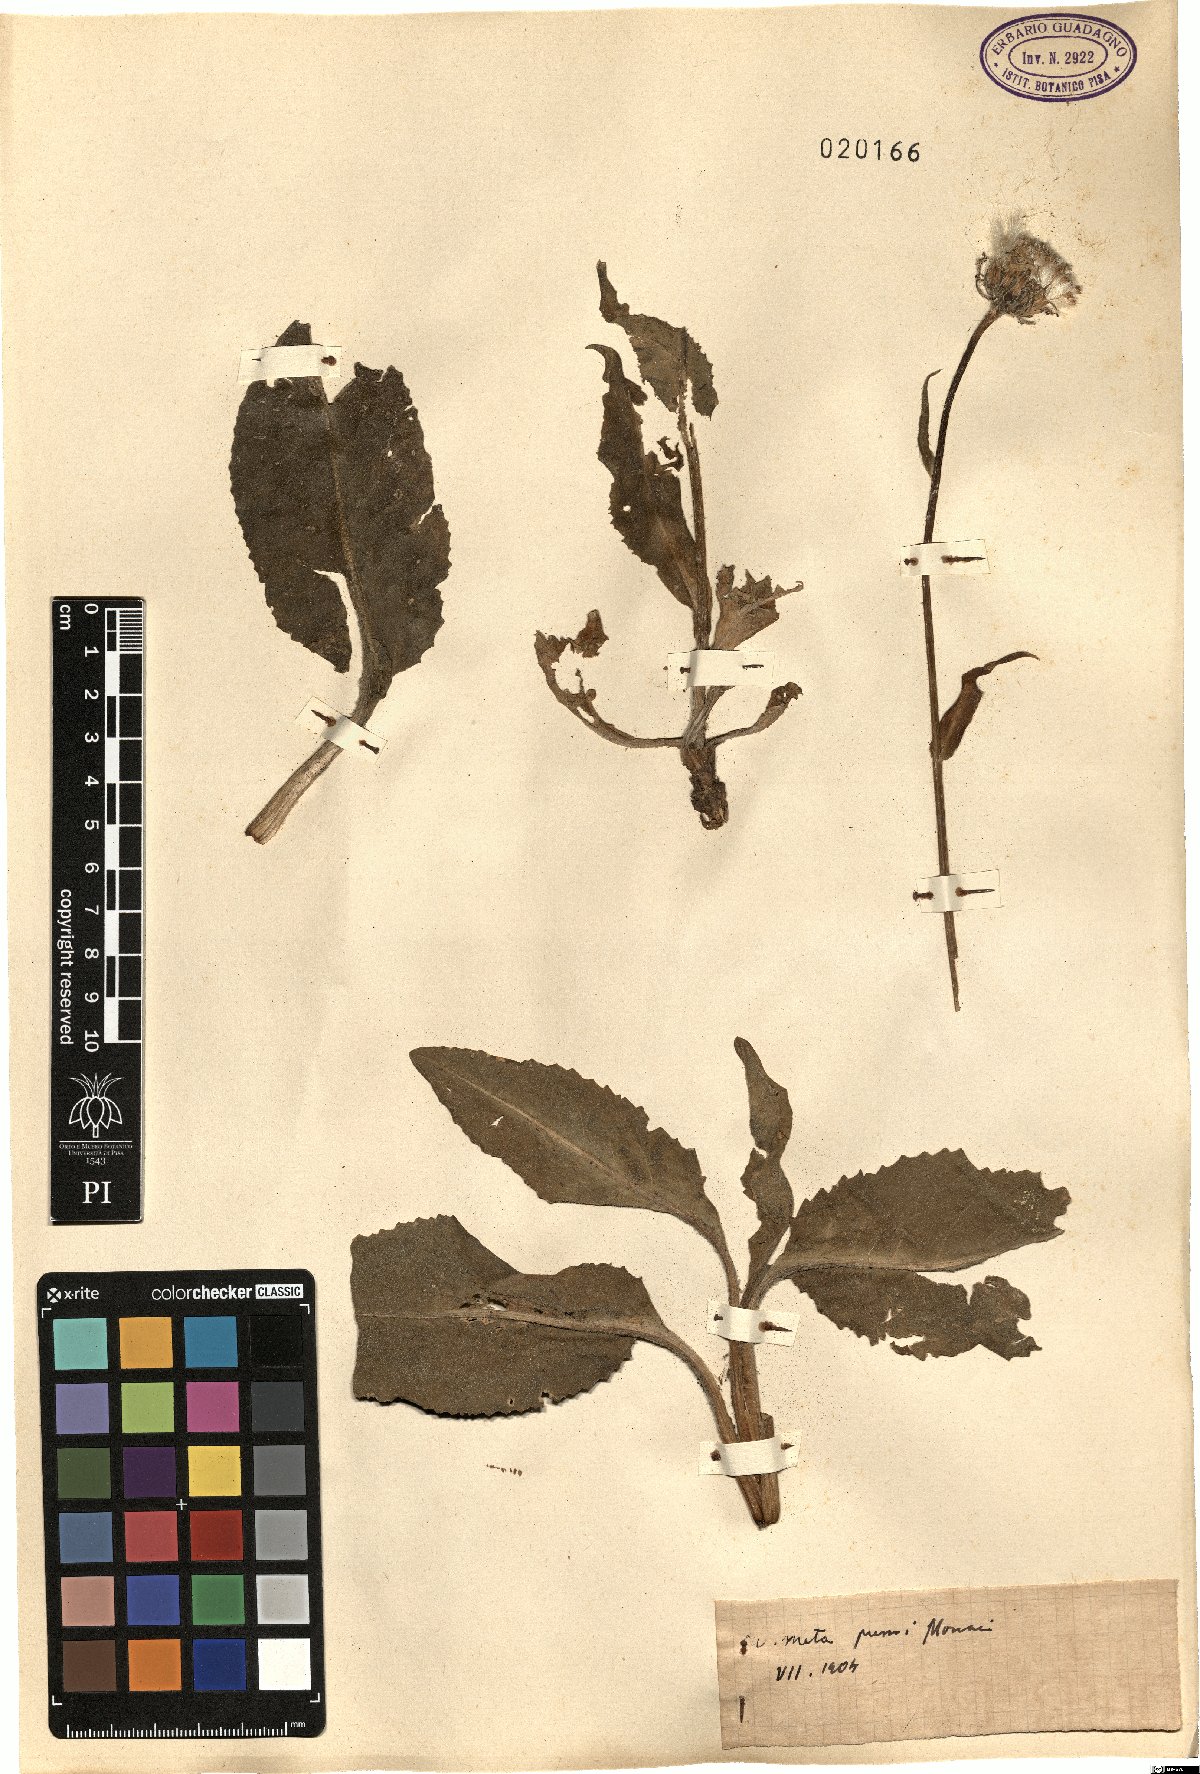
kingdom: Plantae
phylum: Tracheophyta
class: Magnoliopsida
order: Asterales
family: Asteraceae
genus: Senecio
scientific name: Senecio
